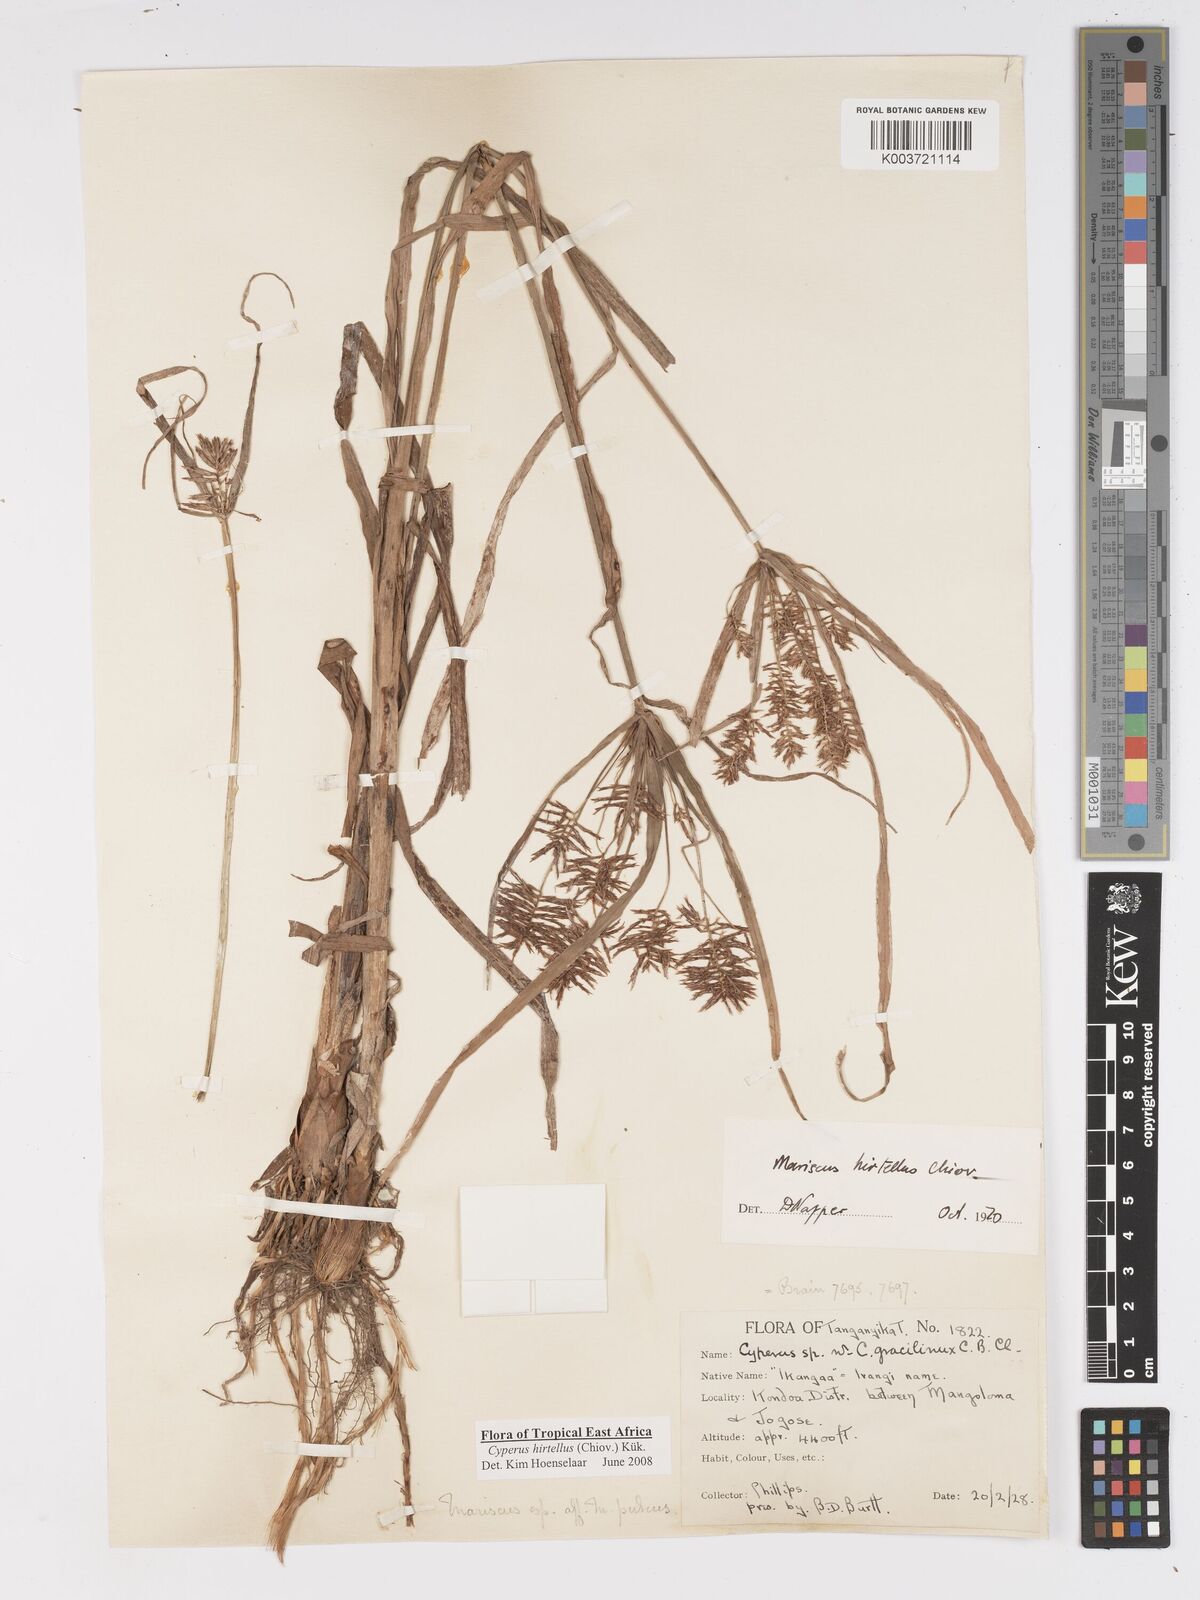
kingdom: Plantae
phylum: Tracheophyta
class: Liliopsida
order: Poales
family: Cyperaceae
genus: Cyperus
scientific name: Cyperus hirtellus
